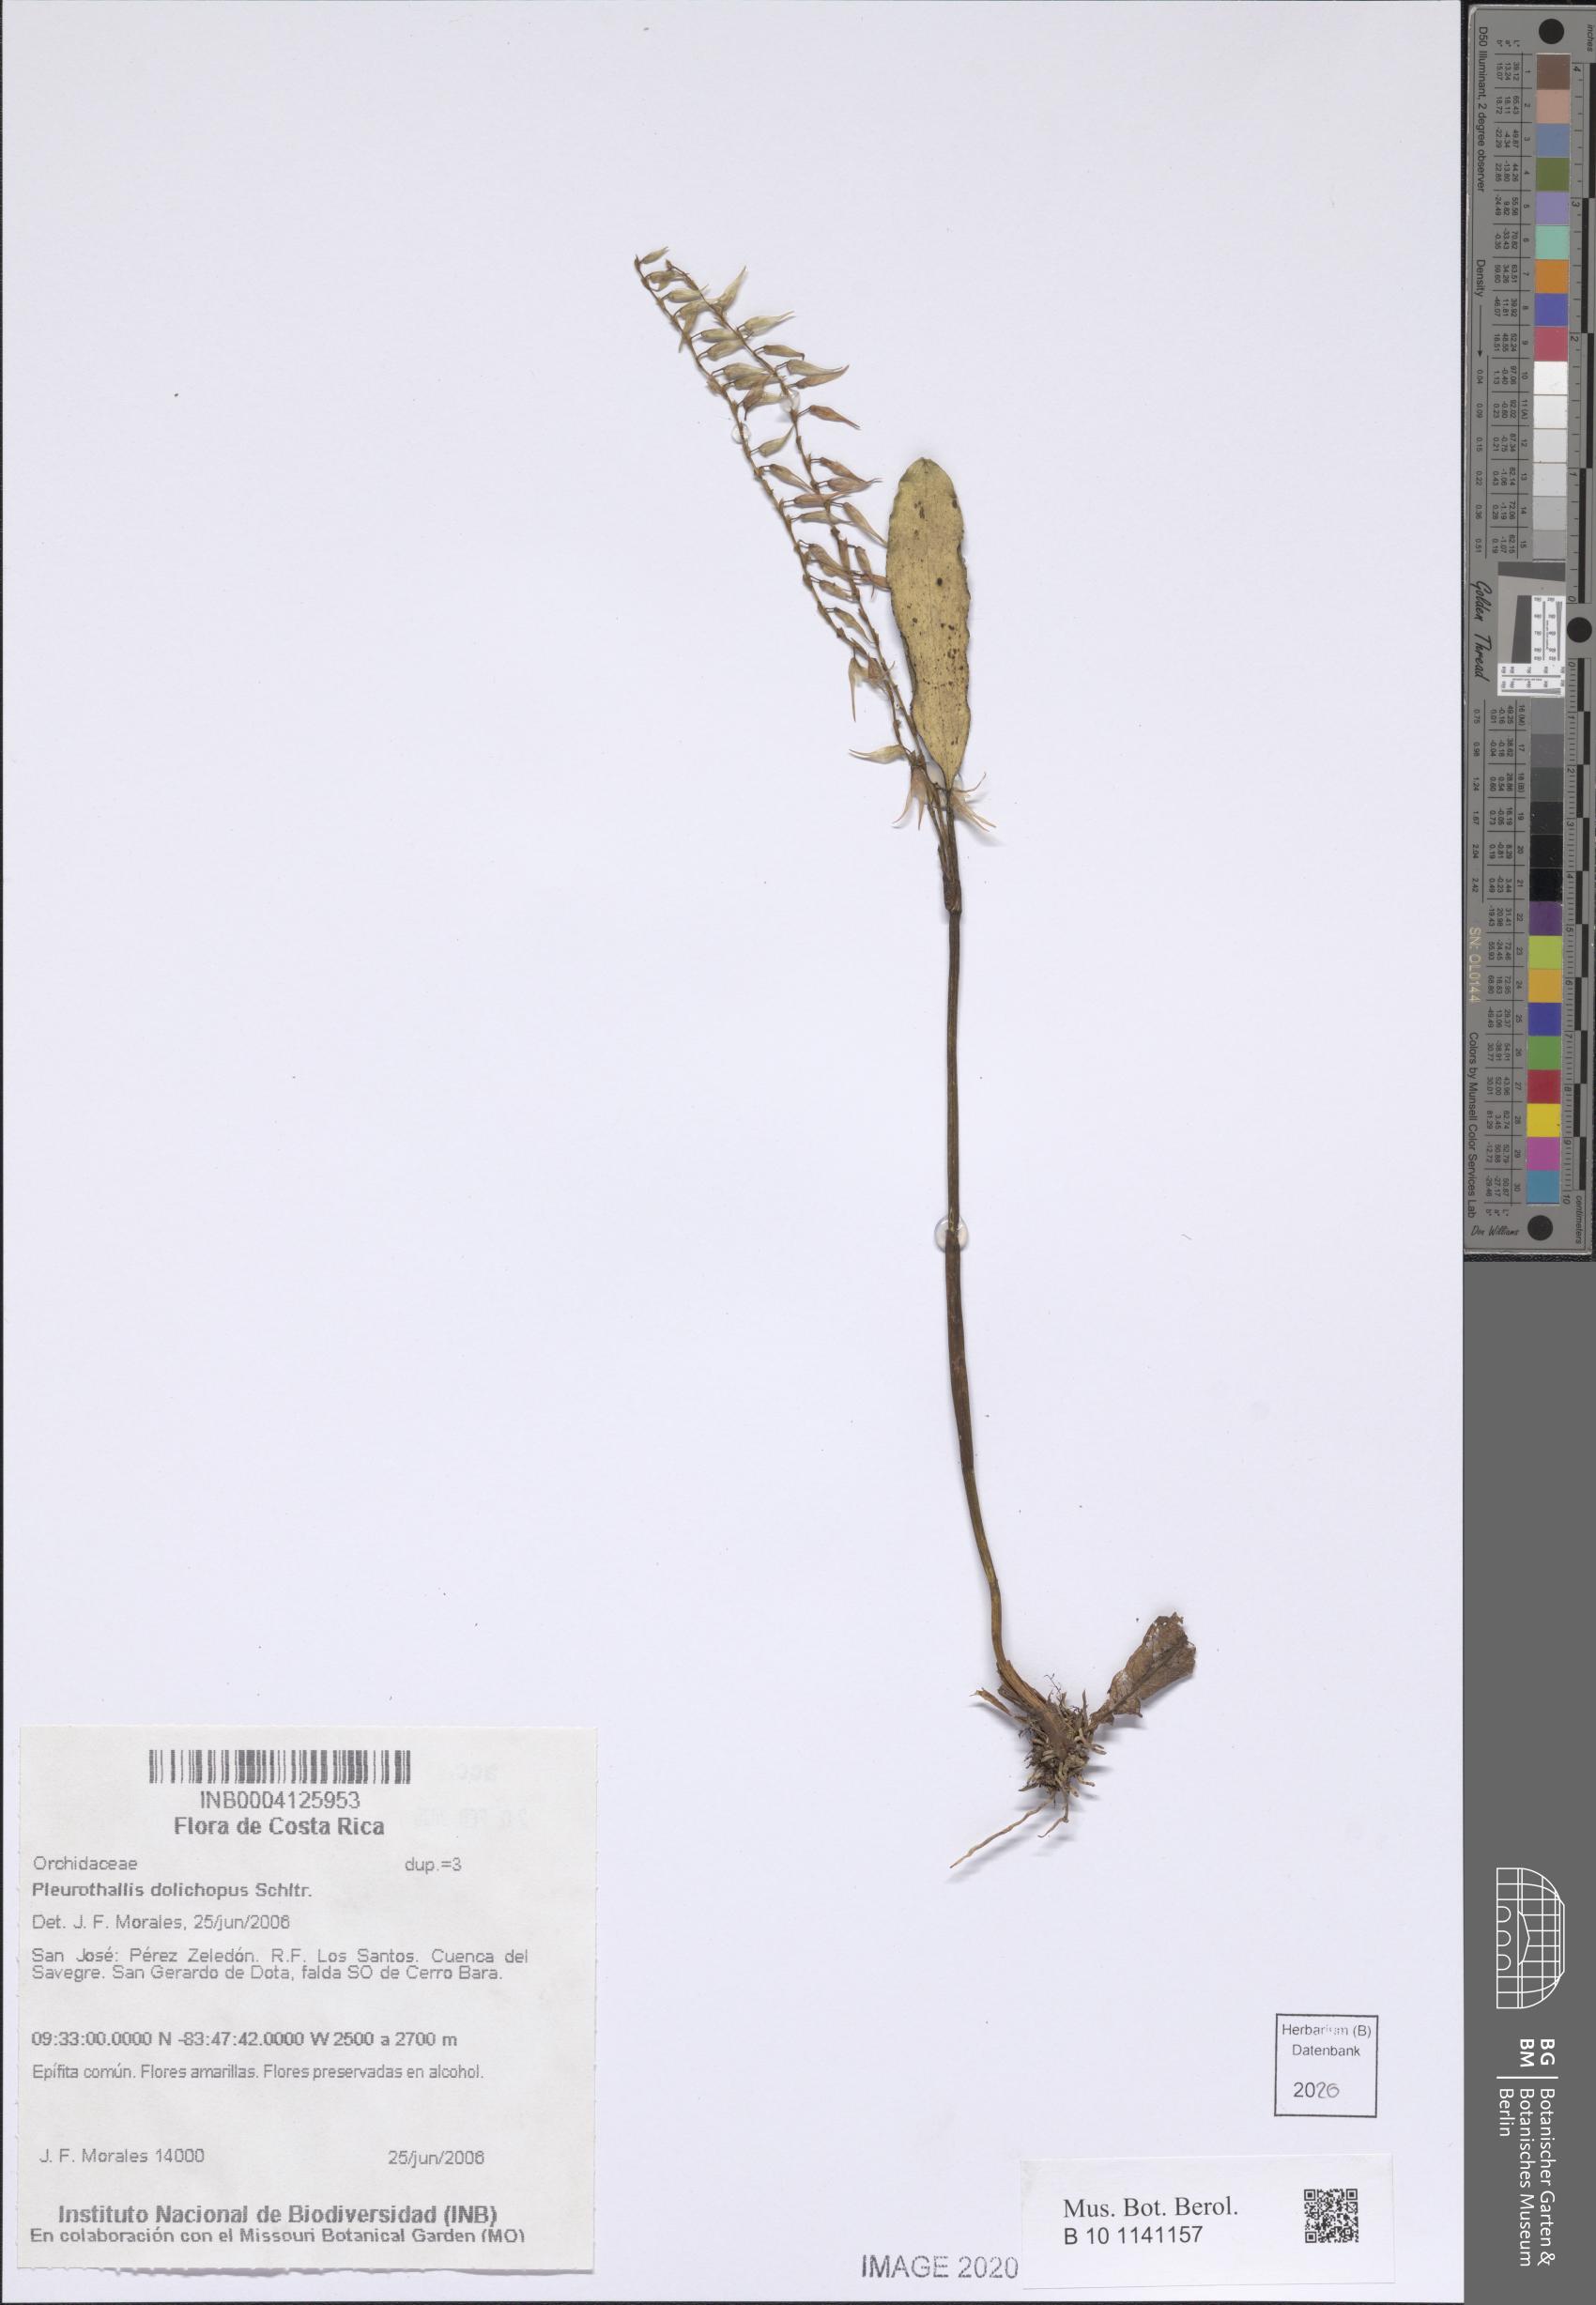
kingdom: Plantae
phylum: Tracheophyta
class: Liliopsida
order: Asparagales
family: Orchidaceae
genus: Stelis
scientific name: Stelis poasensis
